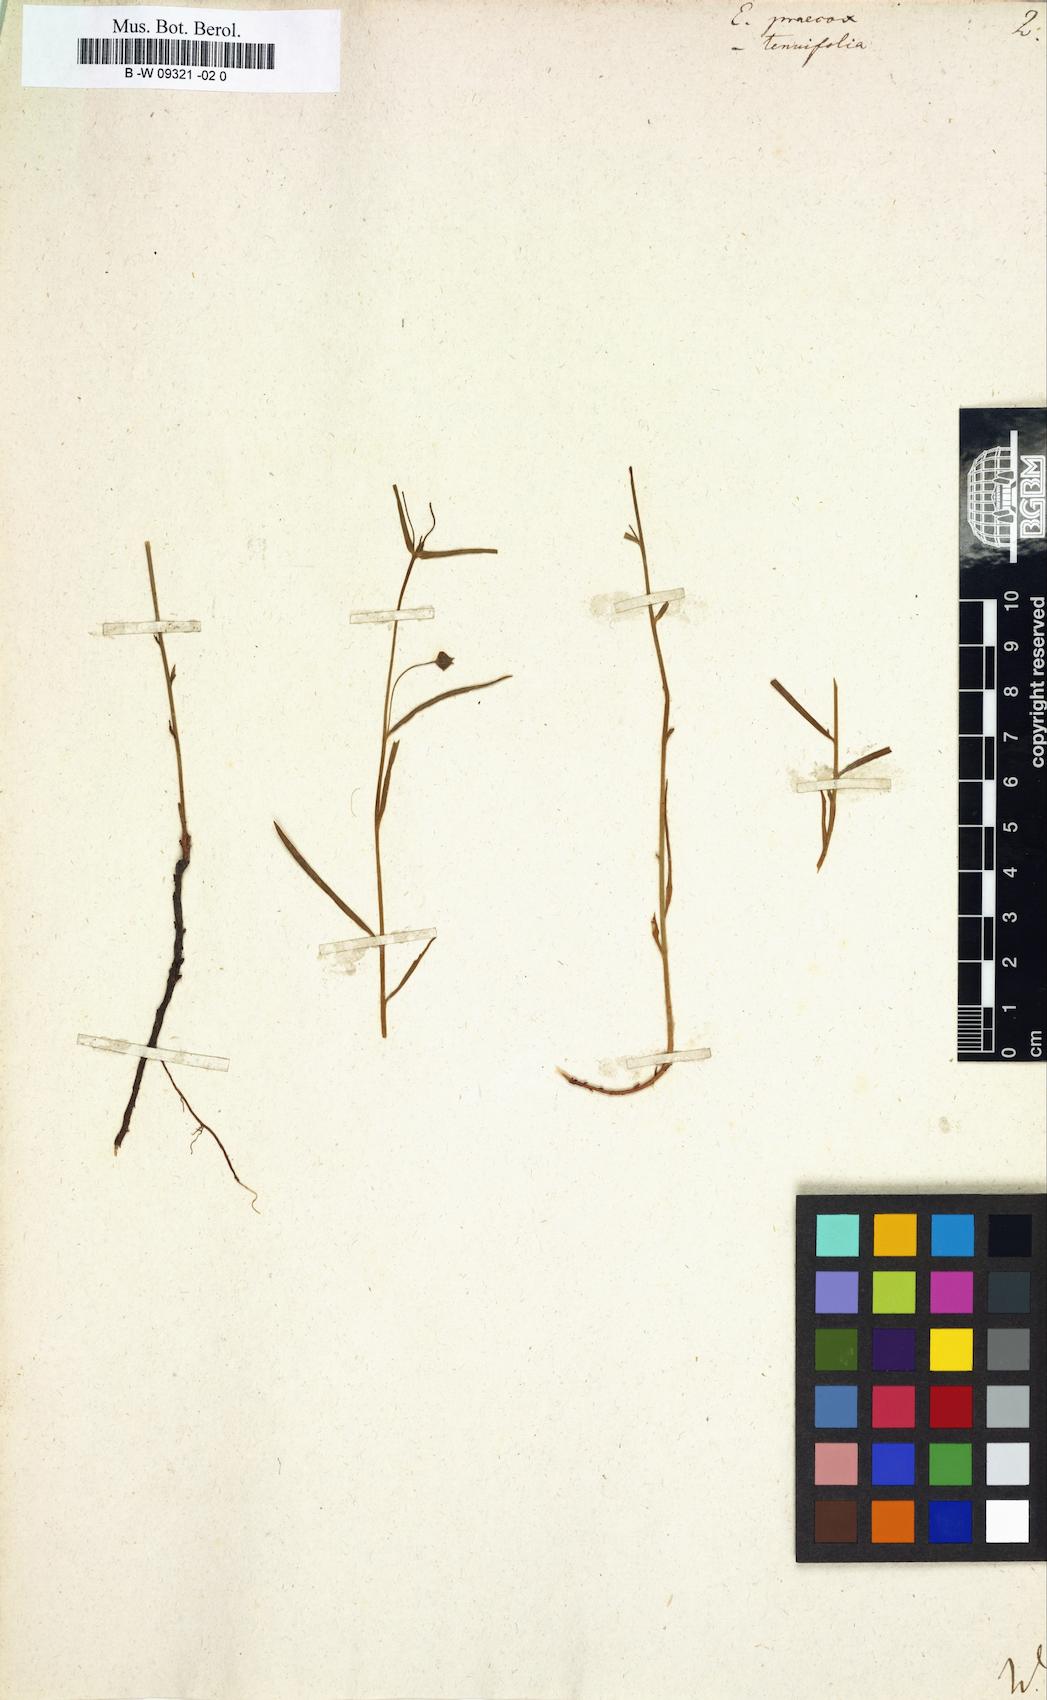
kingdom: Plantae
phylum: Tracheophyta
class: Magnoliopsida
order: Malpighiales
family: Euphorbiaceae
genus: Euphorbia
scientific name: Euphorbia astrachanica
